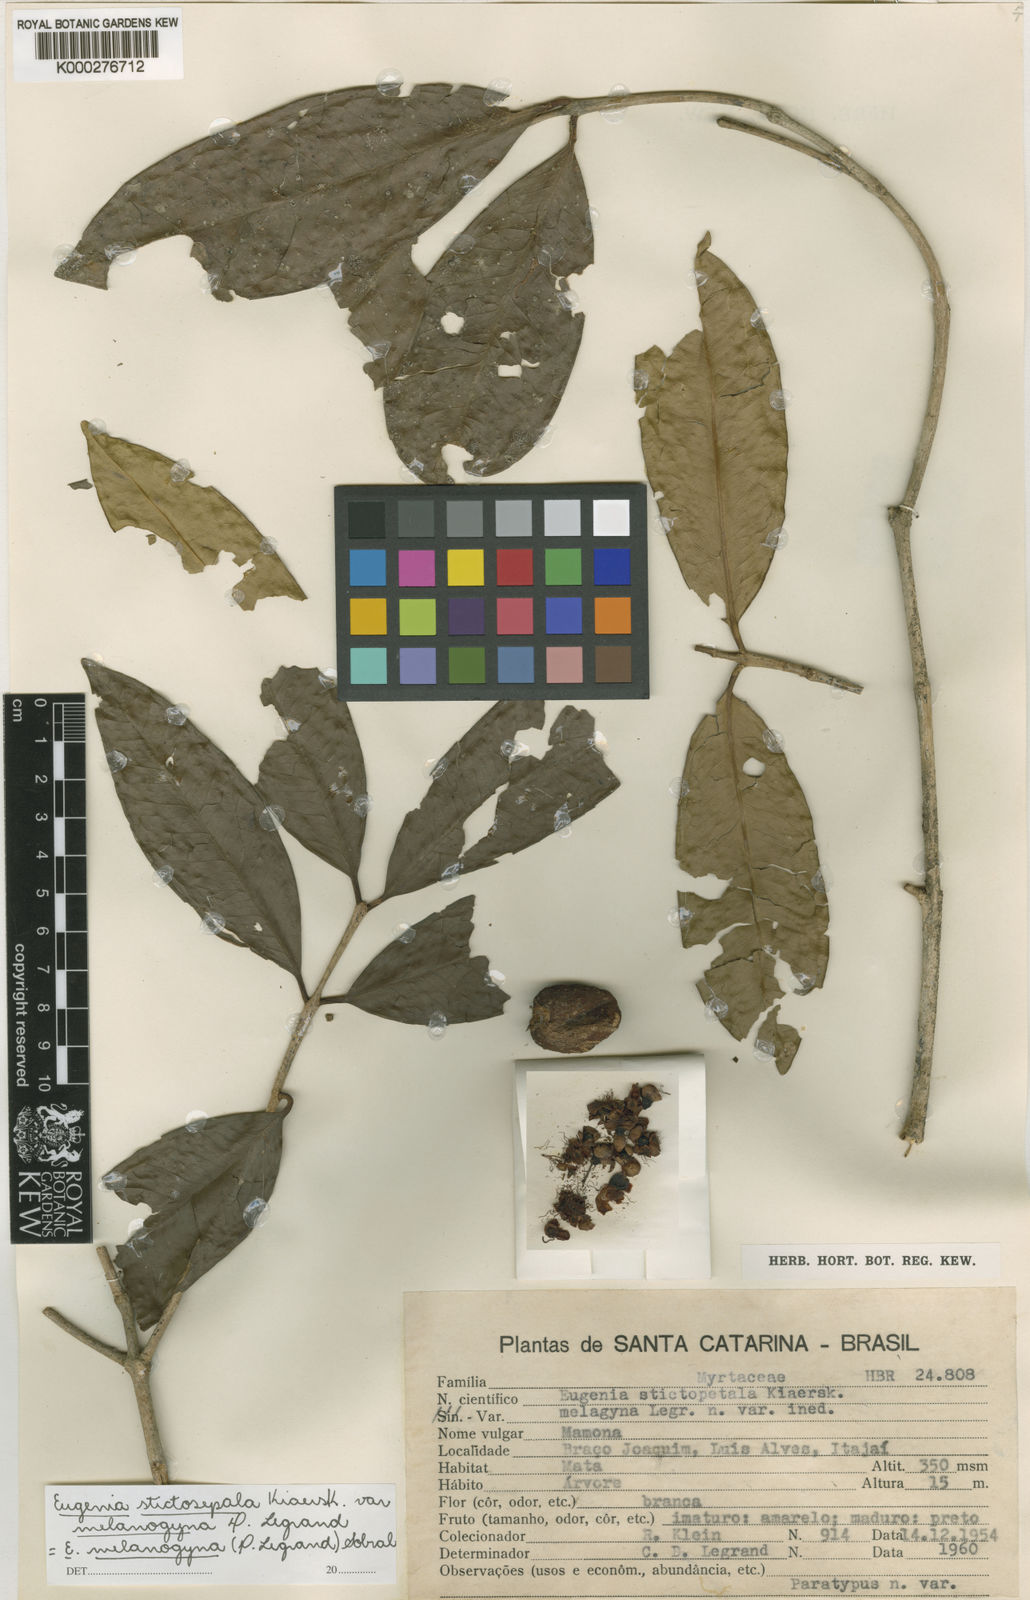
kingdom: Plantae
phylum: Tracheophyta
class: Magnoliopsida
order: Myrtales
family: Myrtaceae
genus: Eugenia
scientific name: Eugenia melanogyna
